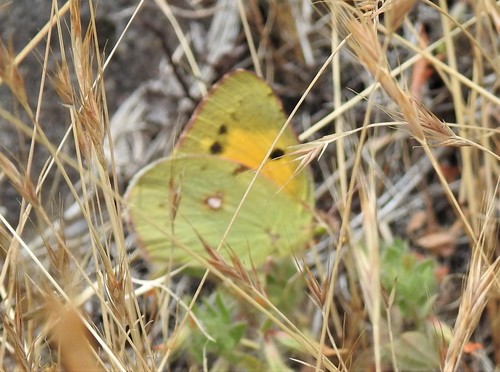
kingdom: Animalia
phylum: Arthropoda
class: Insecta
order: Lepidoptera
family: Pieridae
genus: Colias
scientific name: Colias croceus
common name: Clouded yellow
